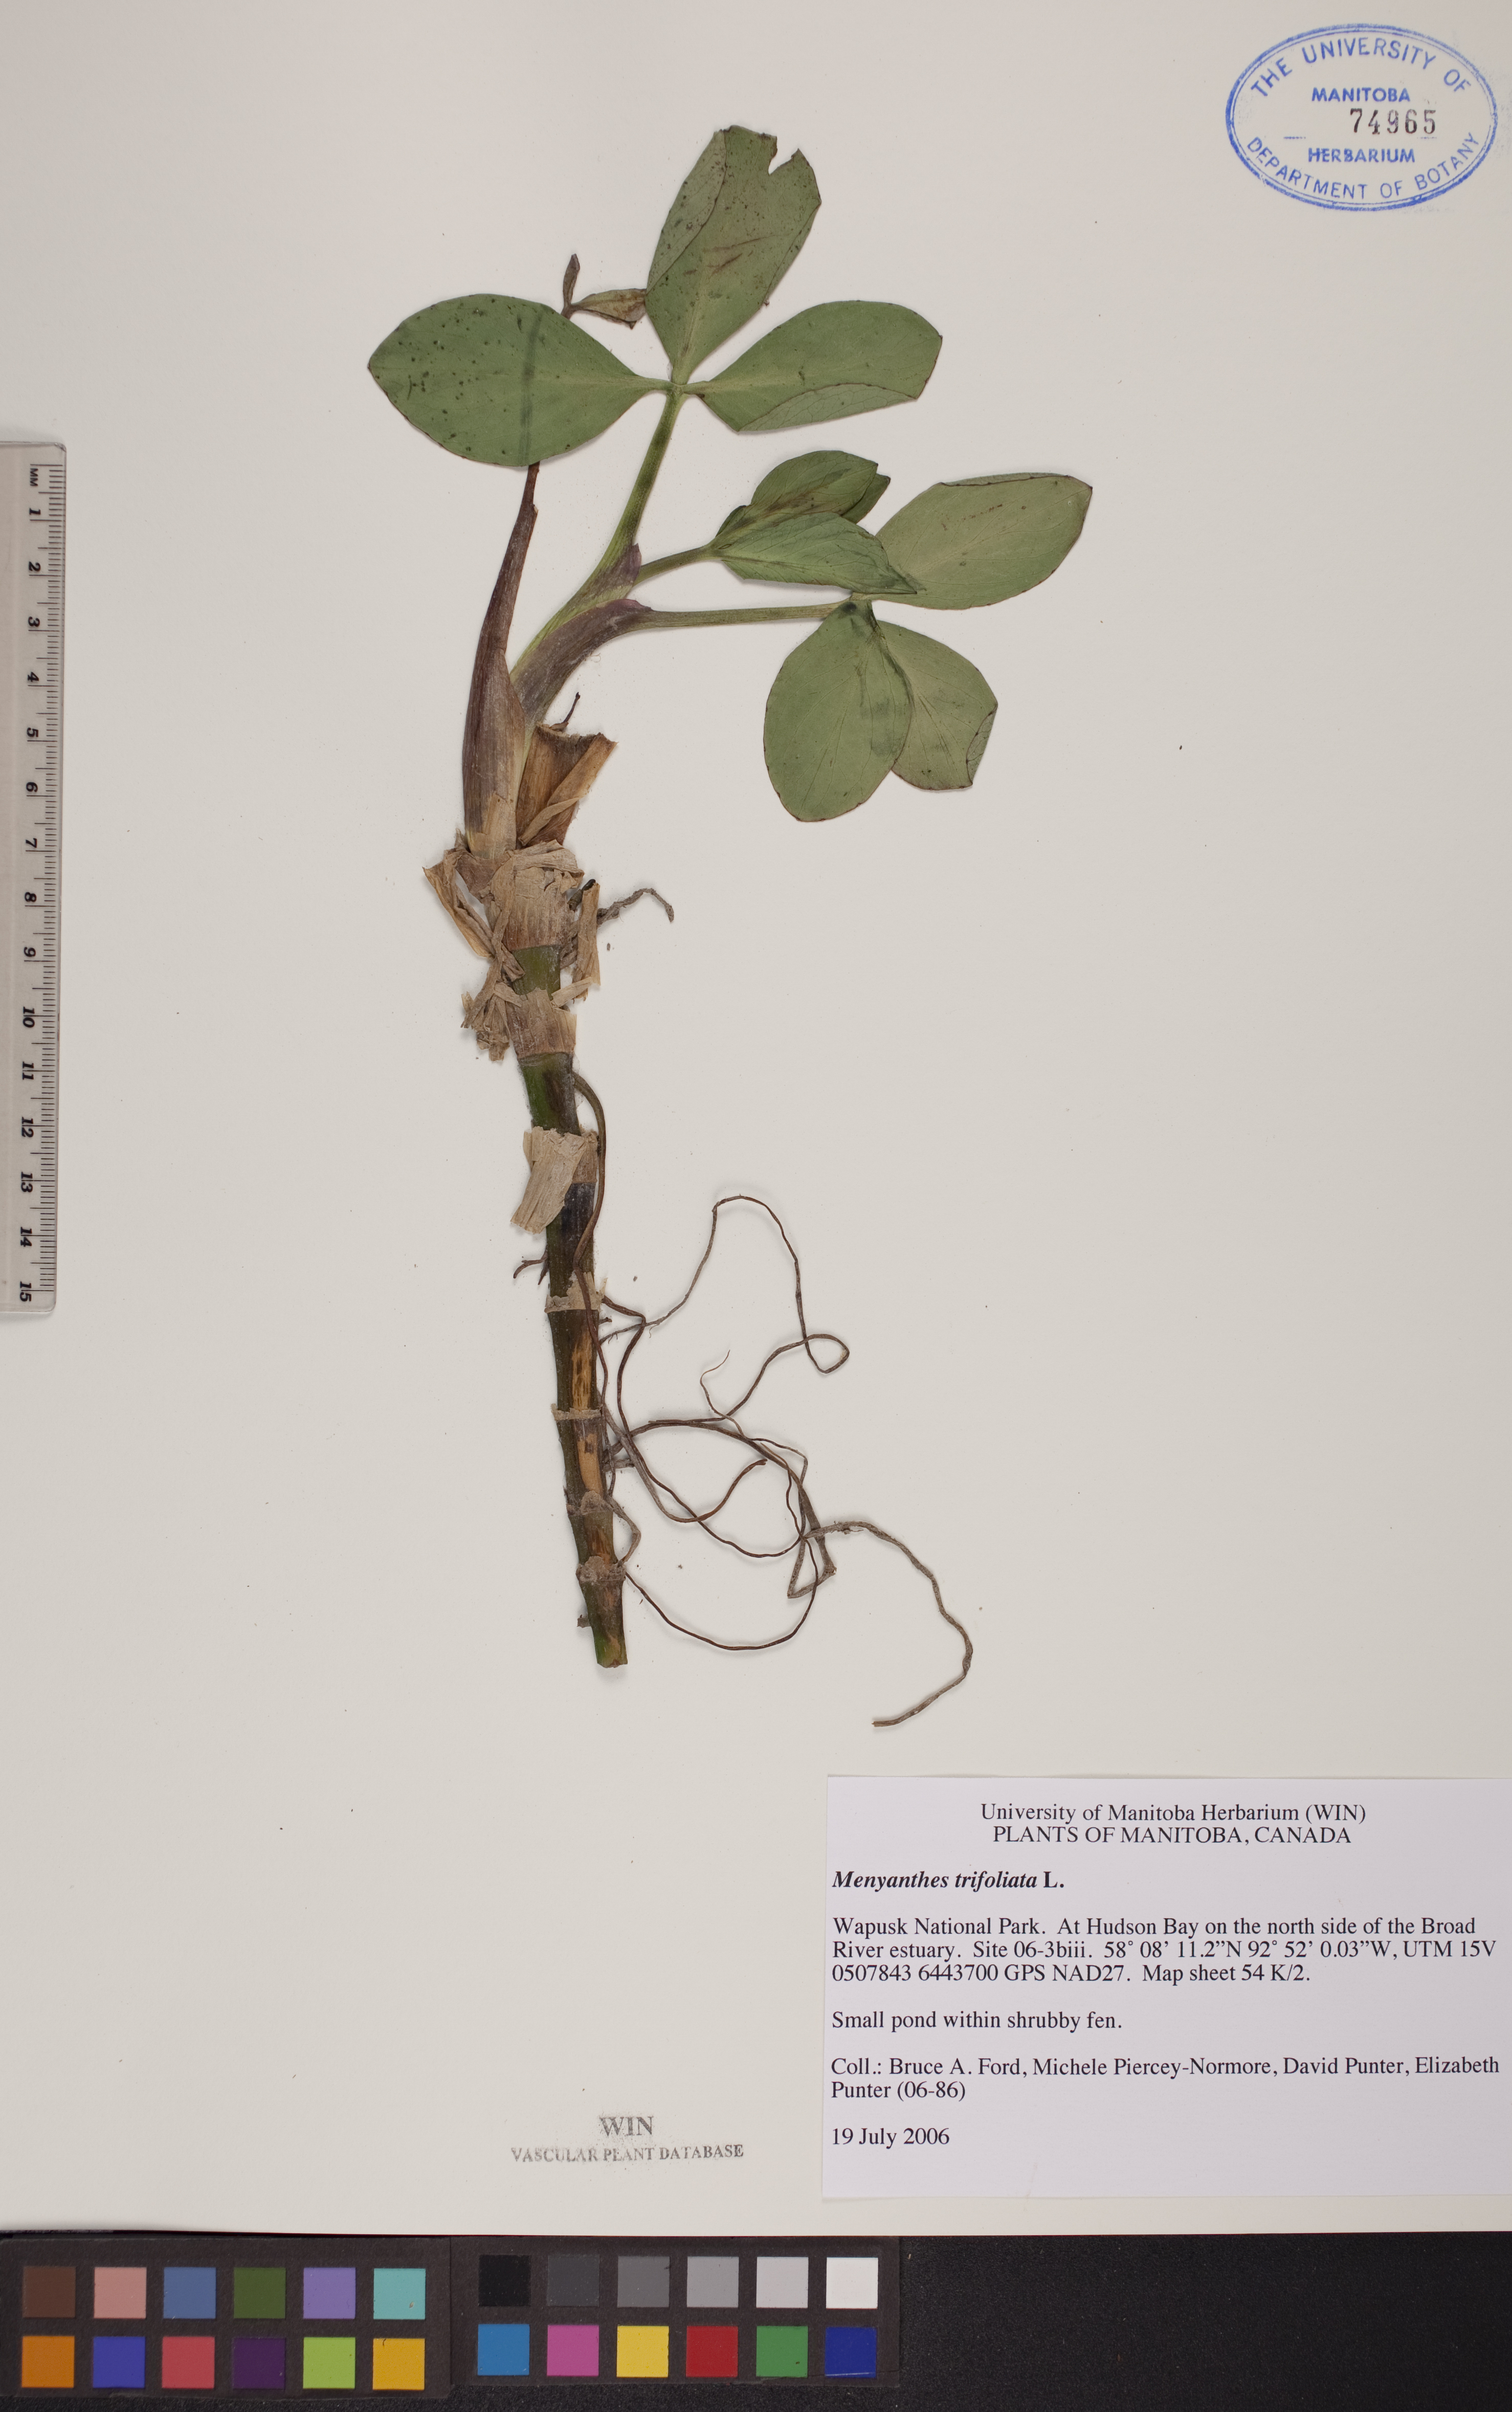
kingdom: Plantae
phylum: Tracheophyta
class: Magnoliopsida
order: Asterales
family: Menyanthaceae
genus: Menyanthes
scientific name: Menyanthes trifoliata
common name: Bogbean
